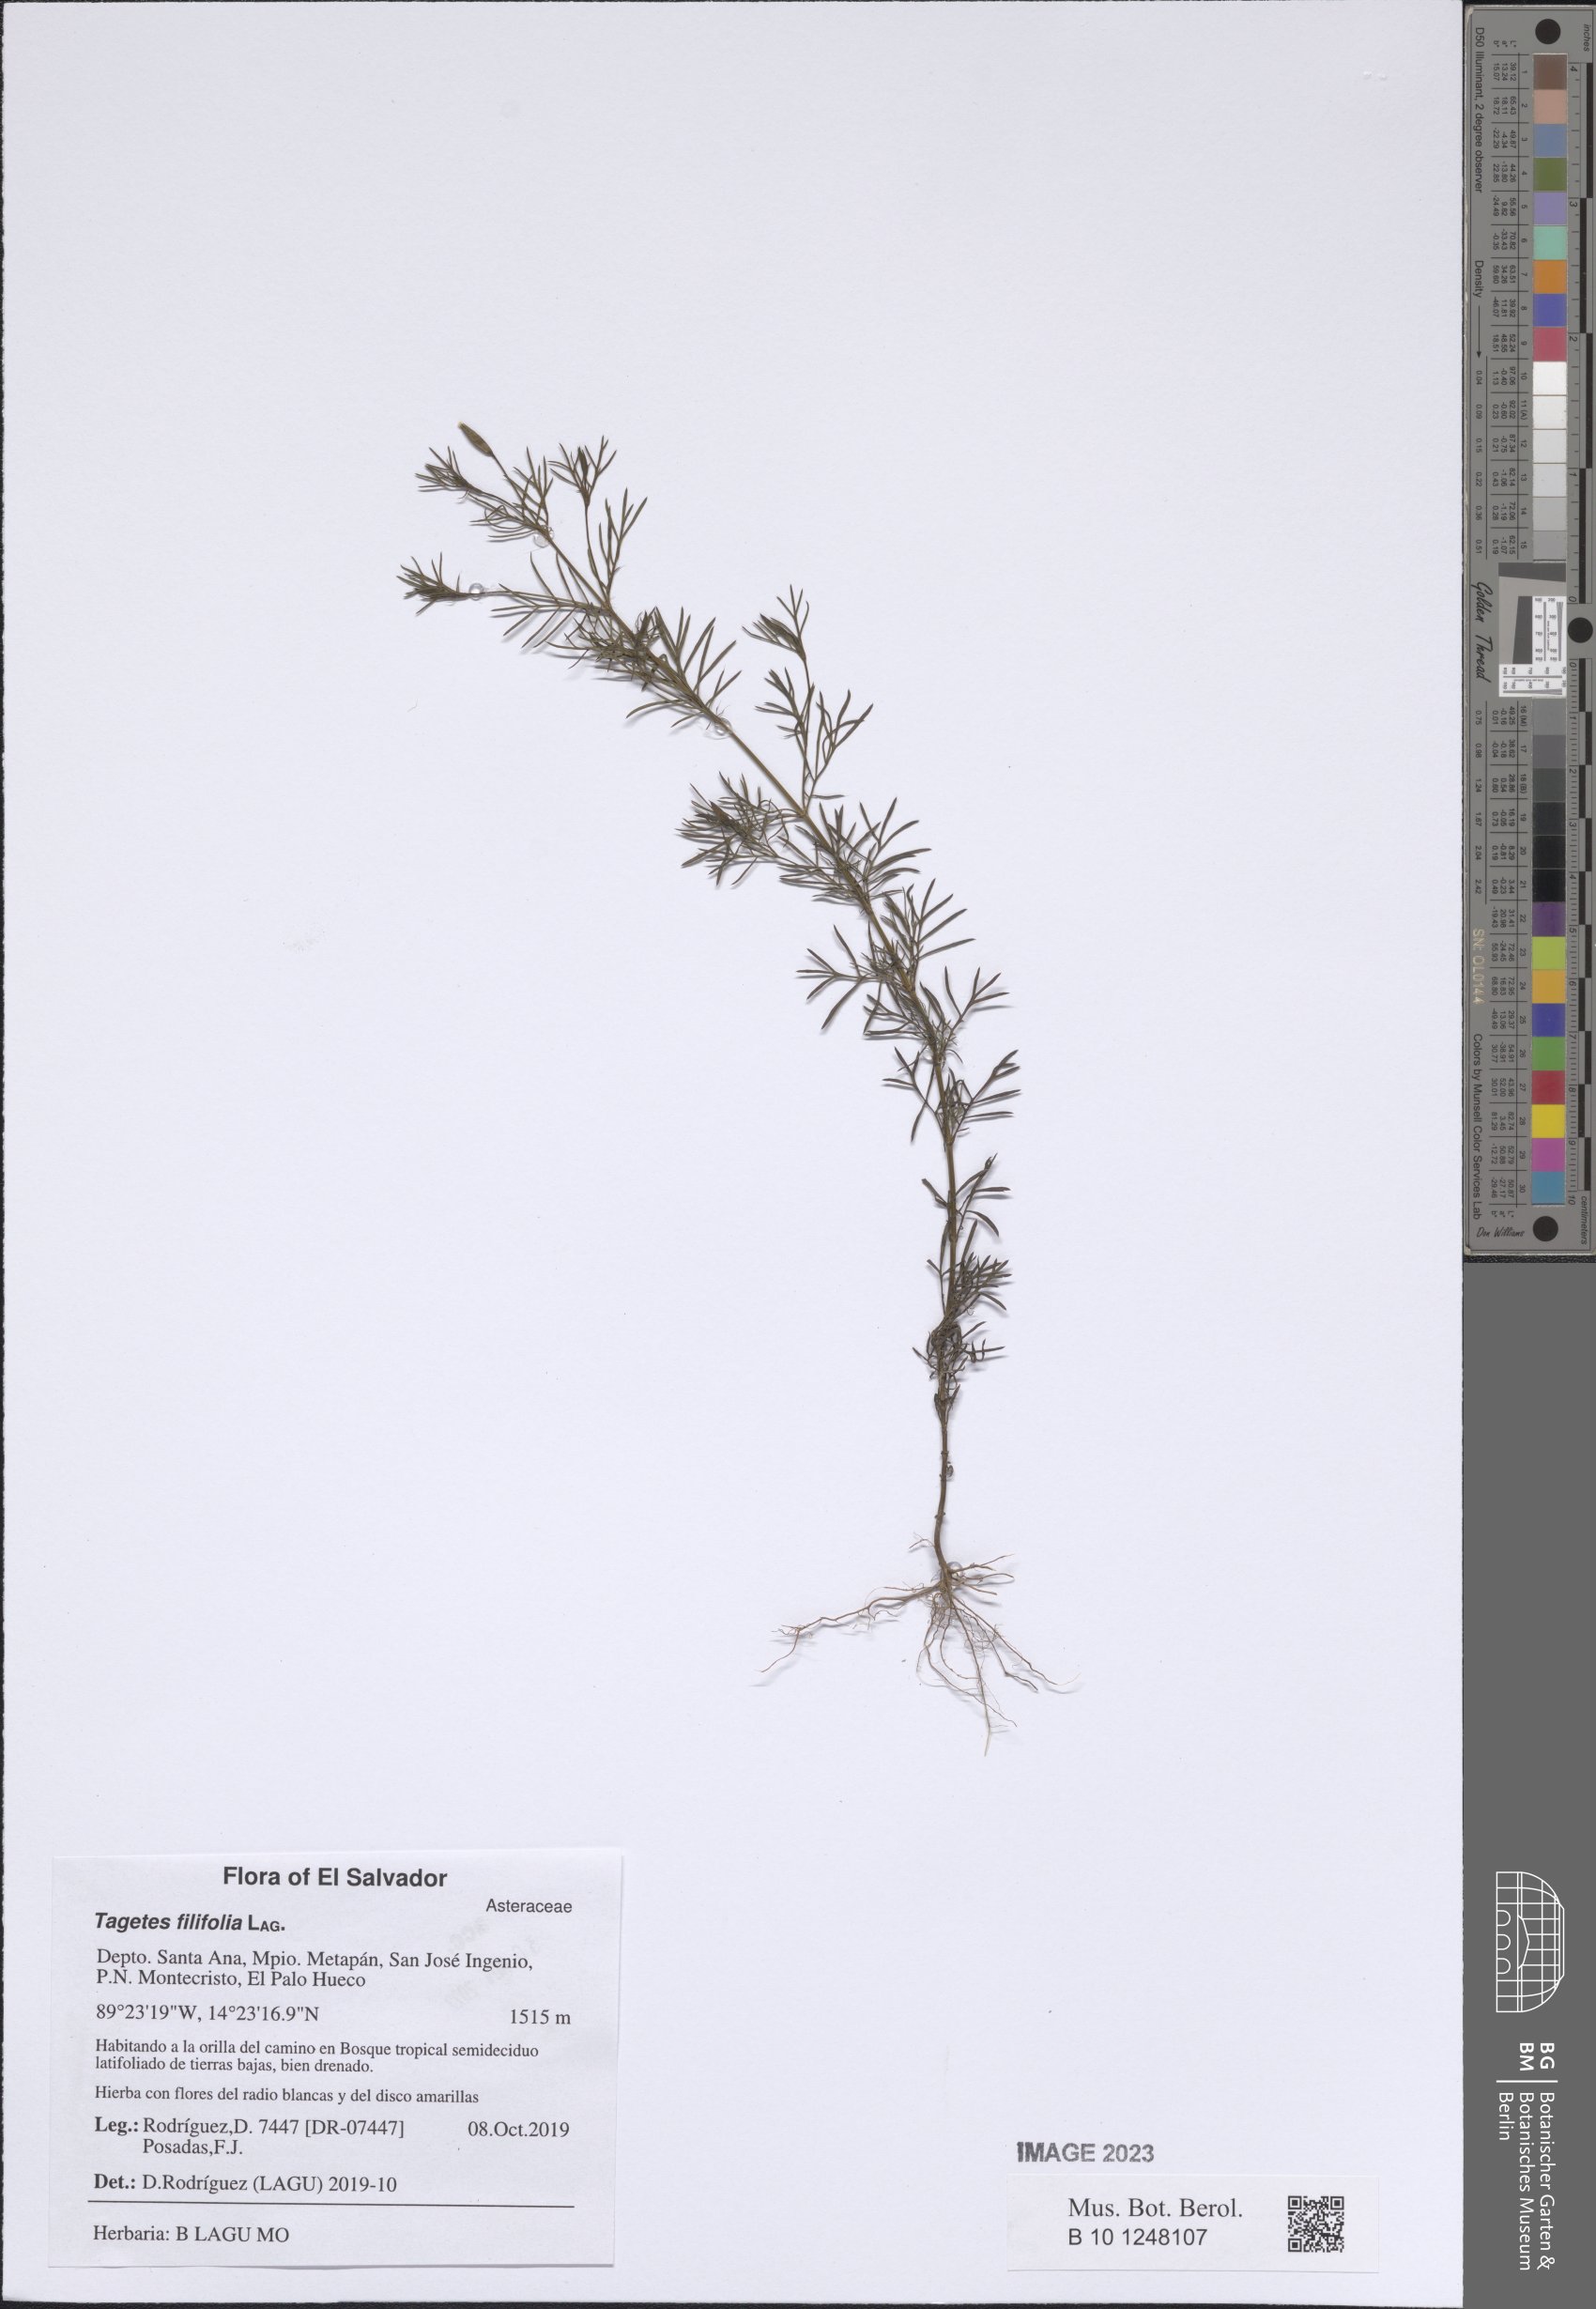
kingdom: Plantae
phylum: Tracheophyta
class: Magnoliopsida
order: Asterales
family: Asteraceae
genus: Tagetes
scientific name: Tagetes filifolia
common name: Lesser marigold
